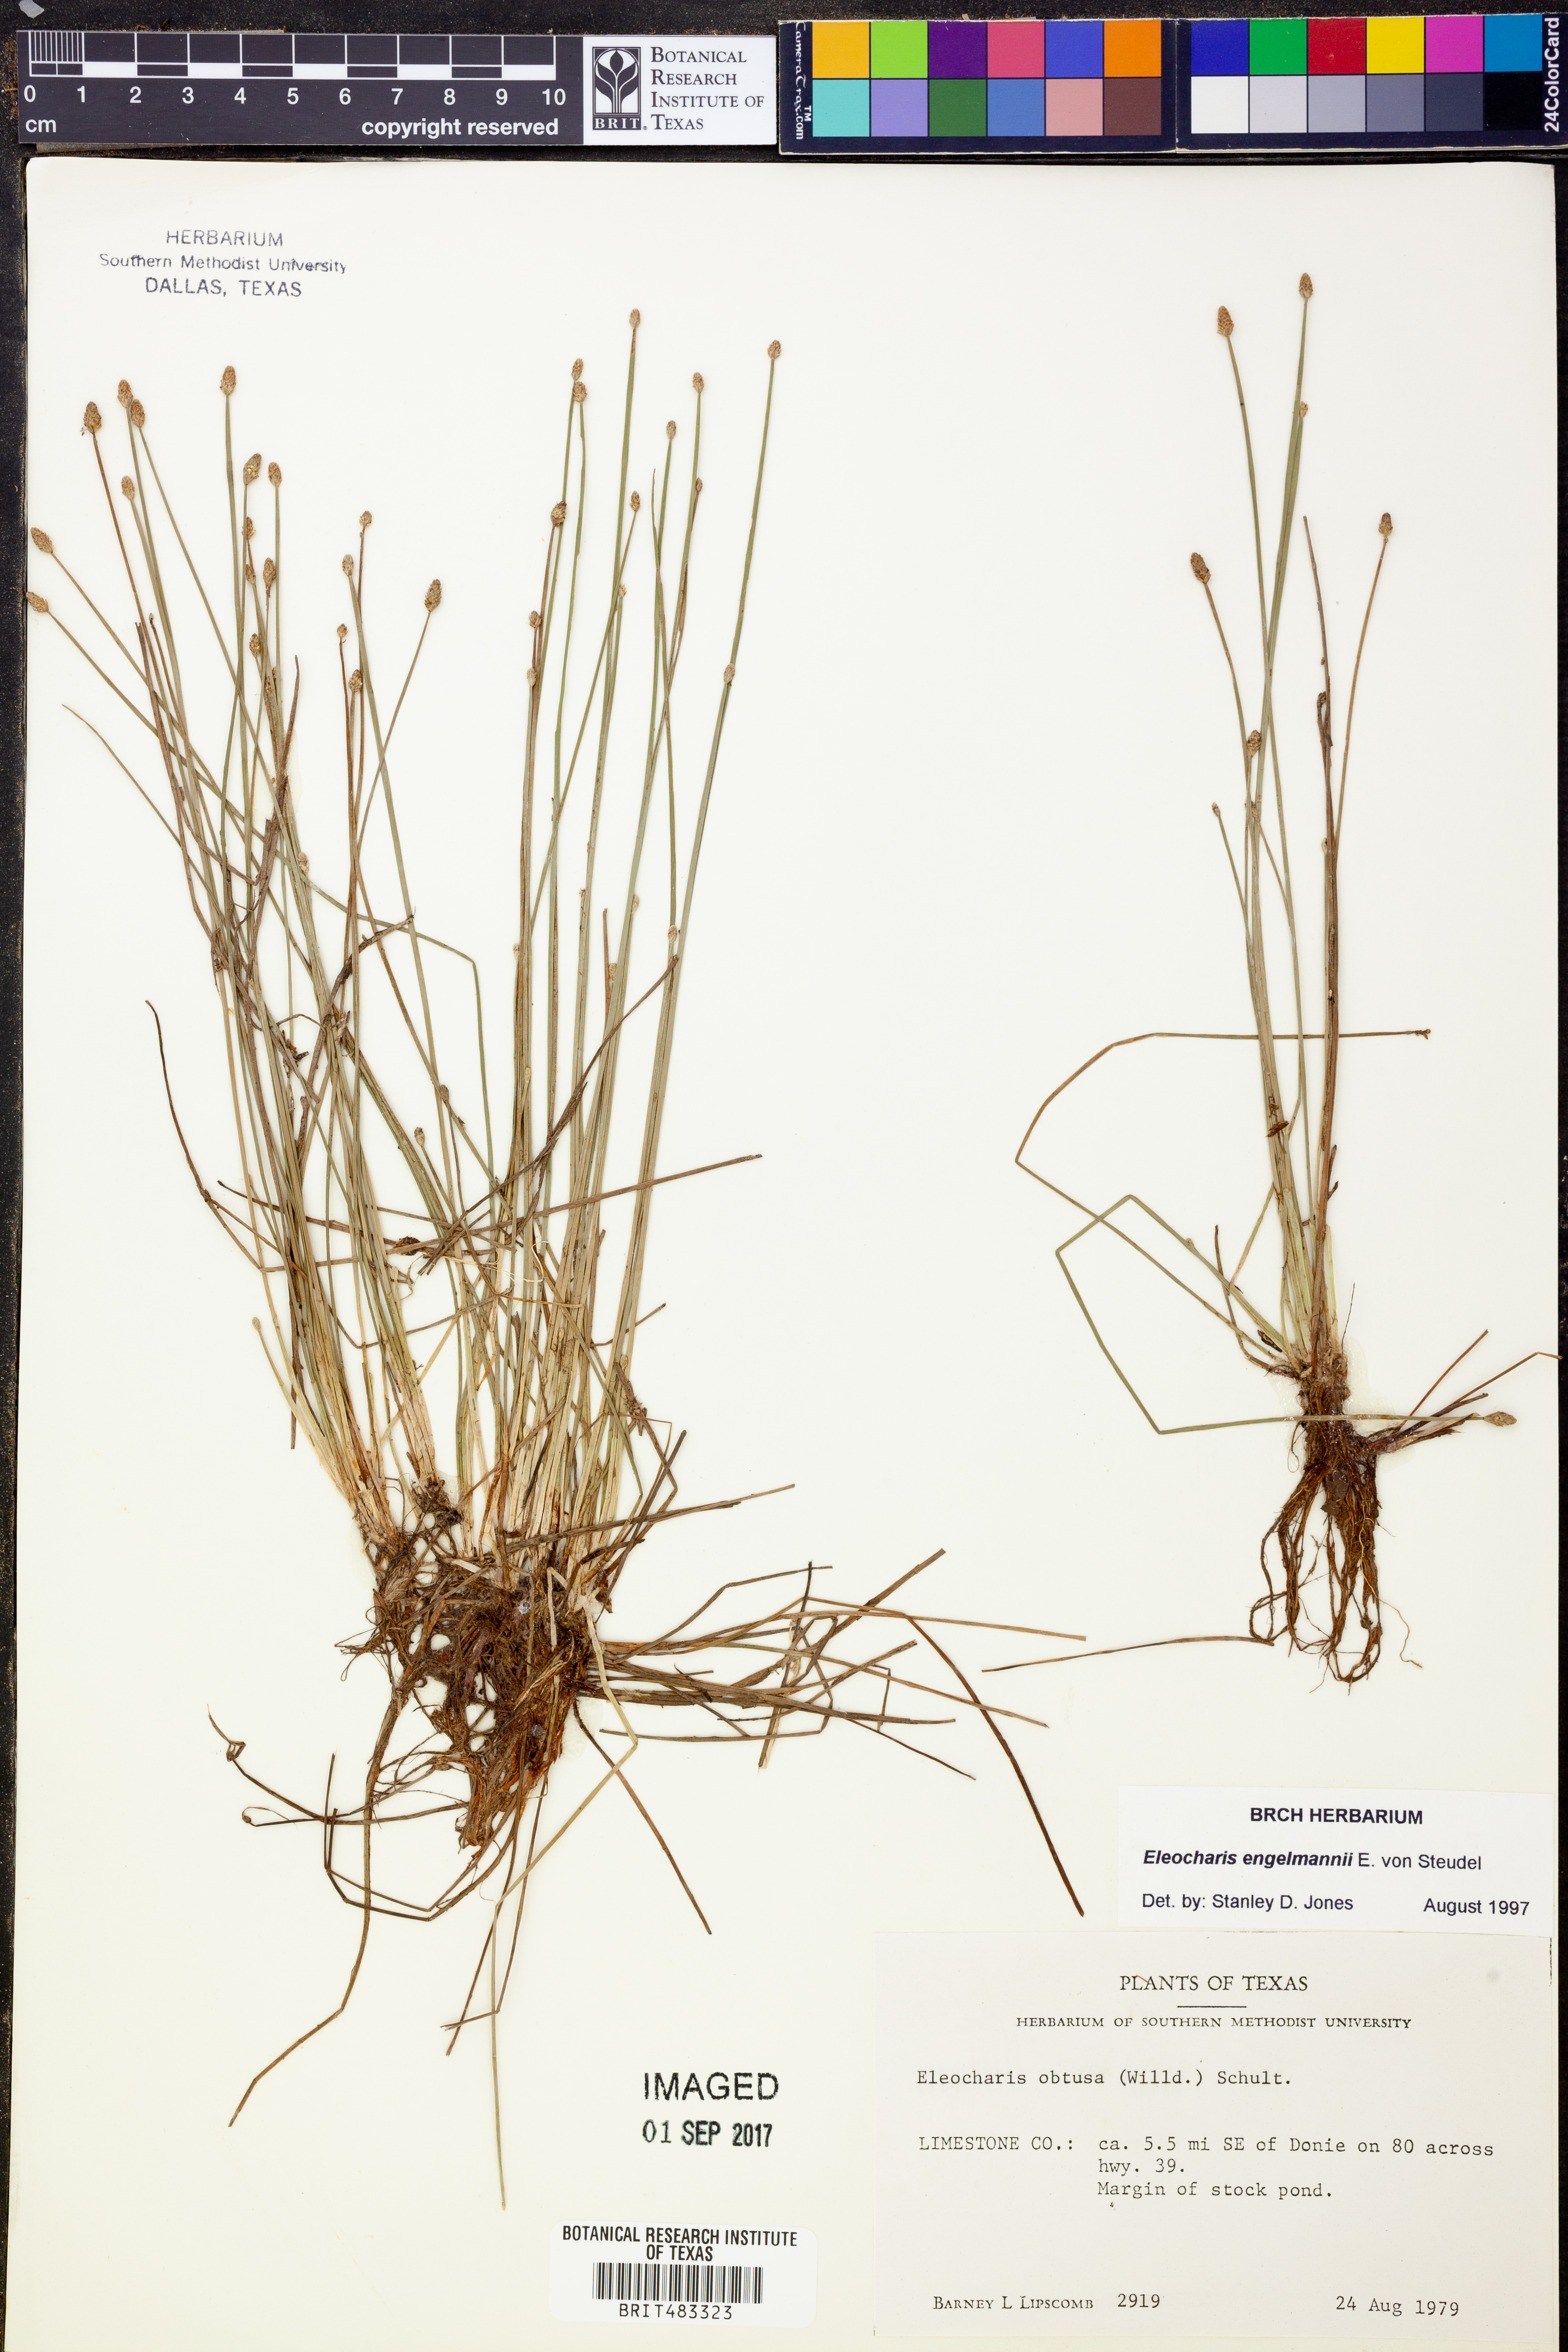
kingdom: Plantae
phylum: Tracheophyta
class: Liliopsida
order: Poales
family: Cyperaceae
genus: Eleocharis
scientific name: Eleocharis engelmannii
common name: Engelmann's spikerush
